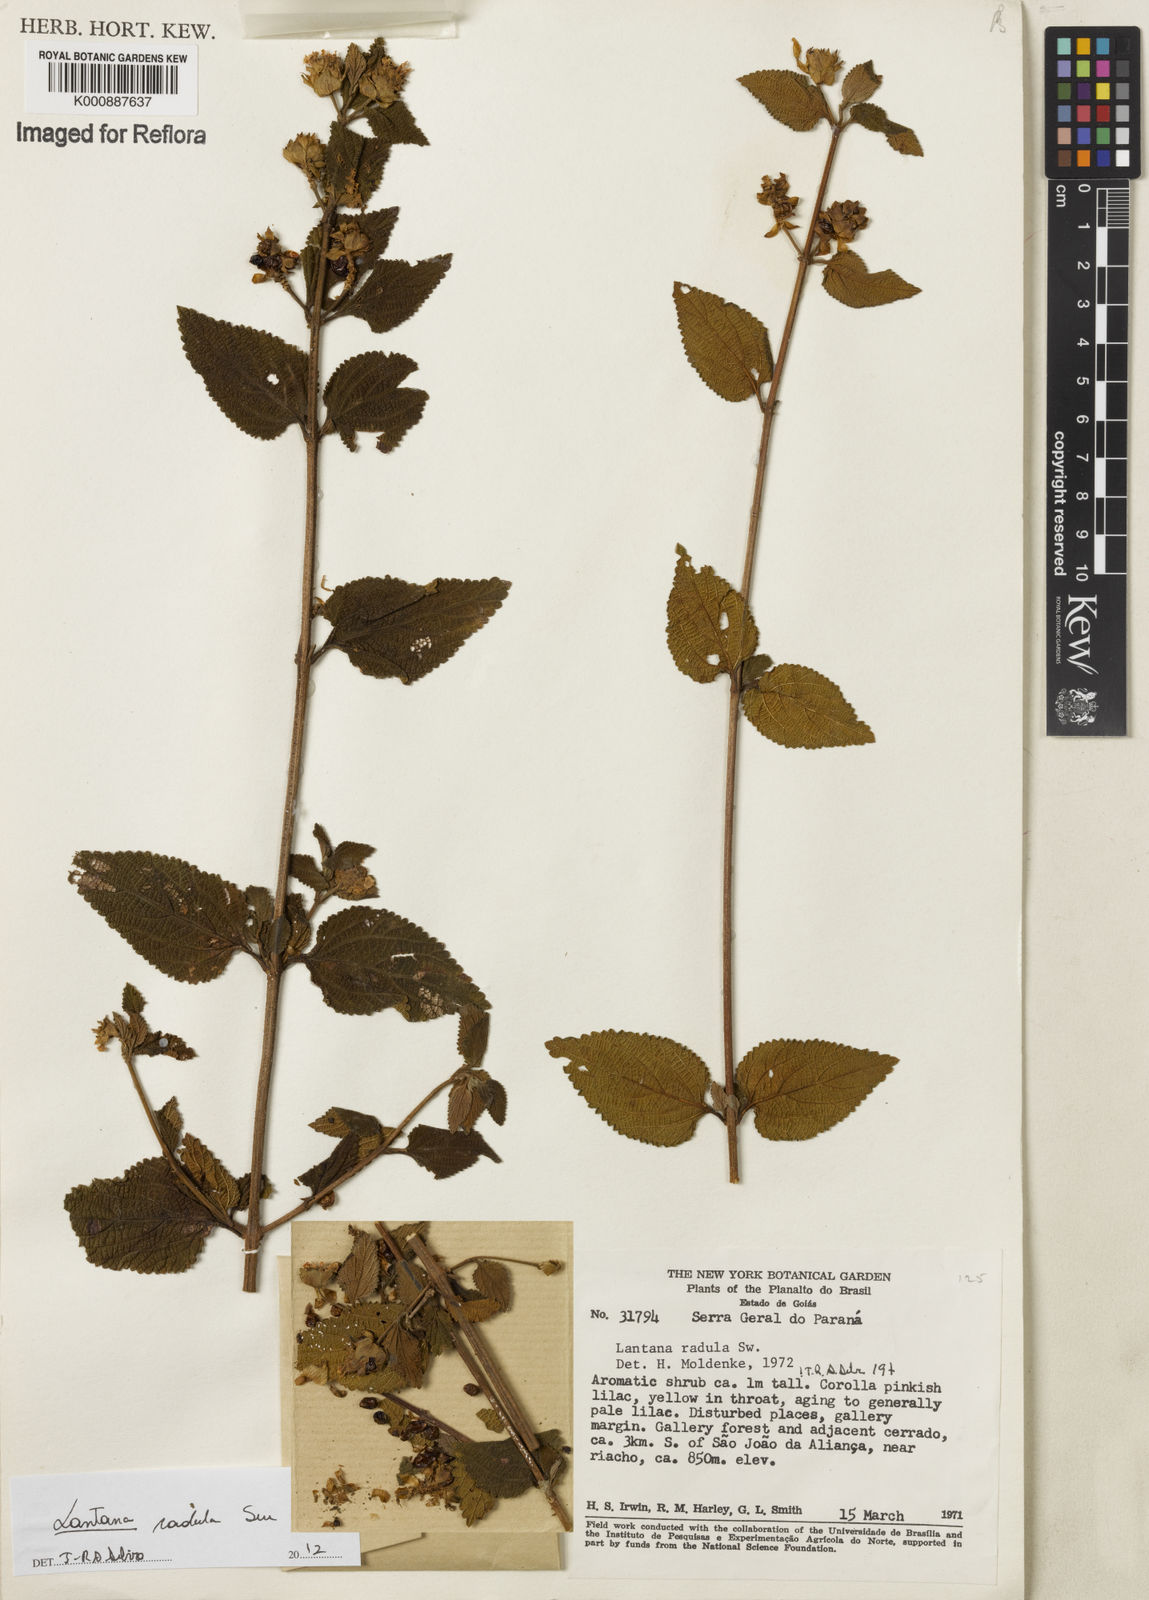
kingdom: Plantae
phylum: Tracheophyta
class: Magnoliopsida
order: Lamiales
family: Verbenaceae
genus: Lantana
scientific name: Lantana radula
